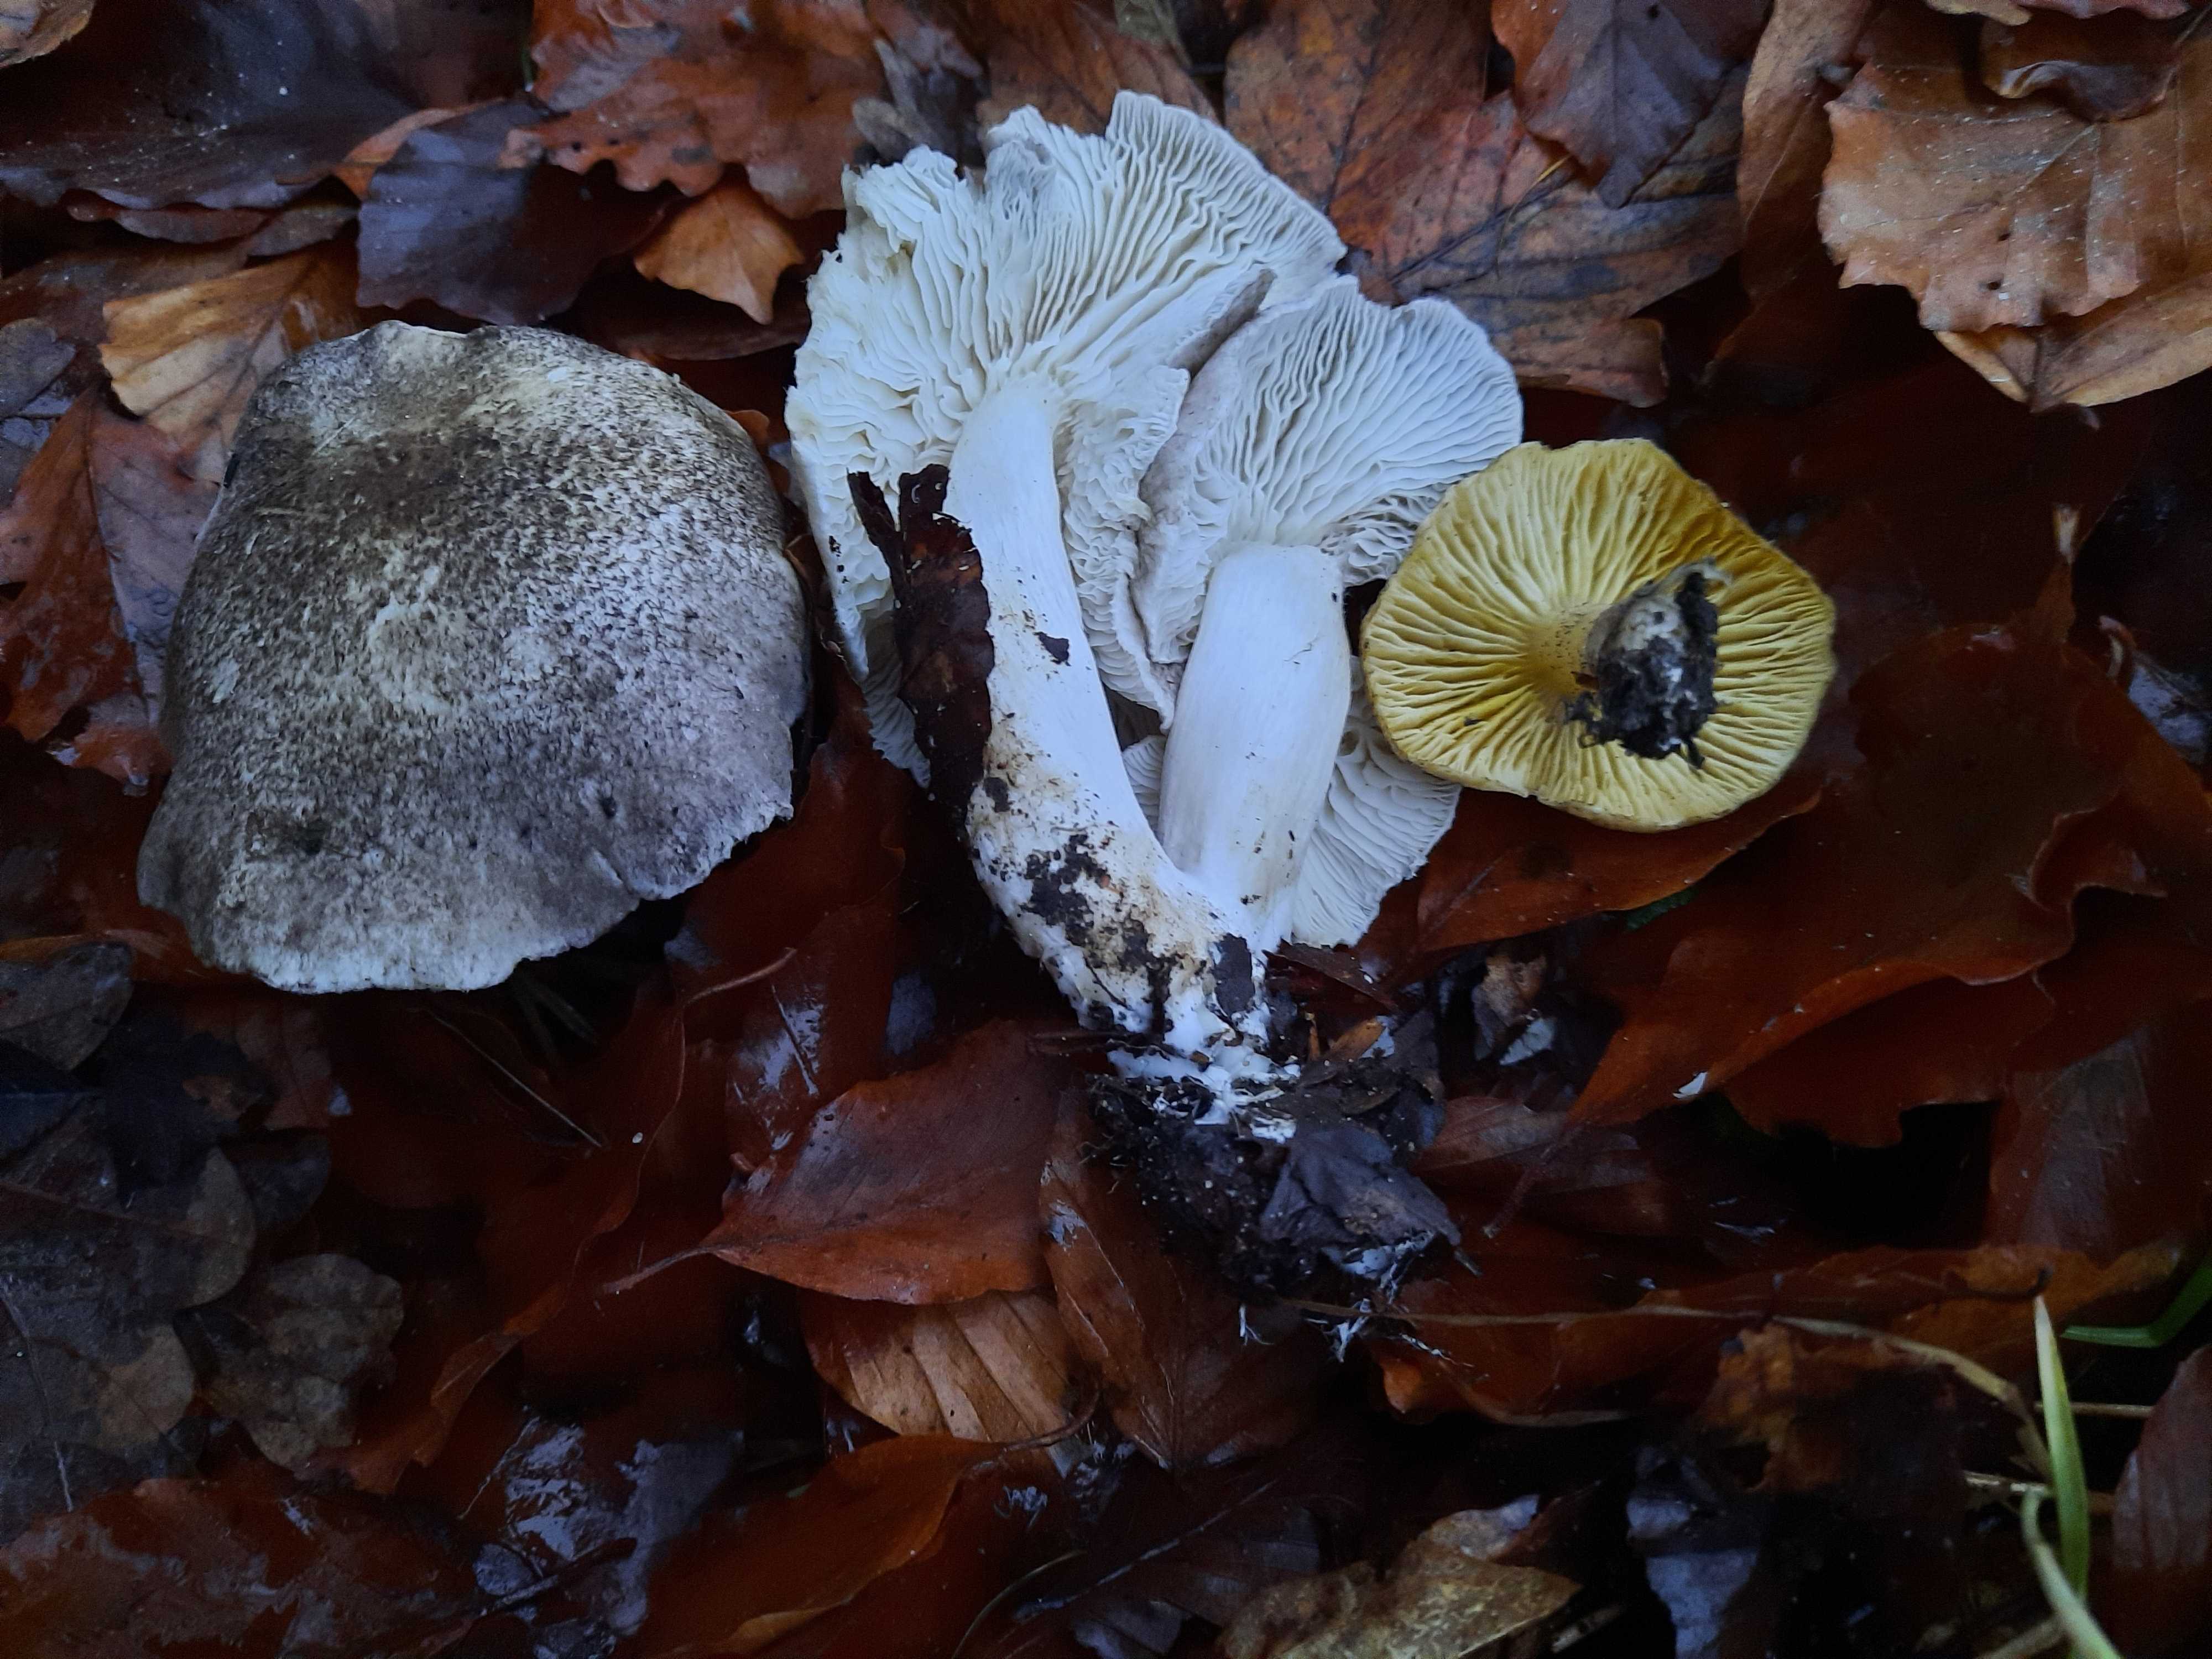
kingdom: Fungi
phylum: Basidiomycota
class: Agaricomycetes
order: Agaricales
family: Tricholomataceae
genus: Tricholoma
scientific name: Tricholoma scalpturatum
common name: gulplettet ridderhat
